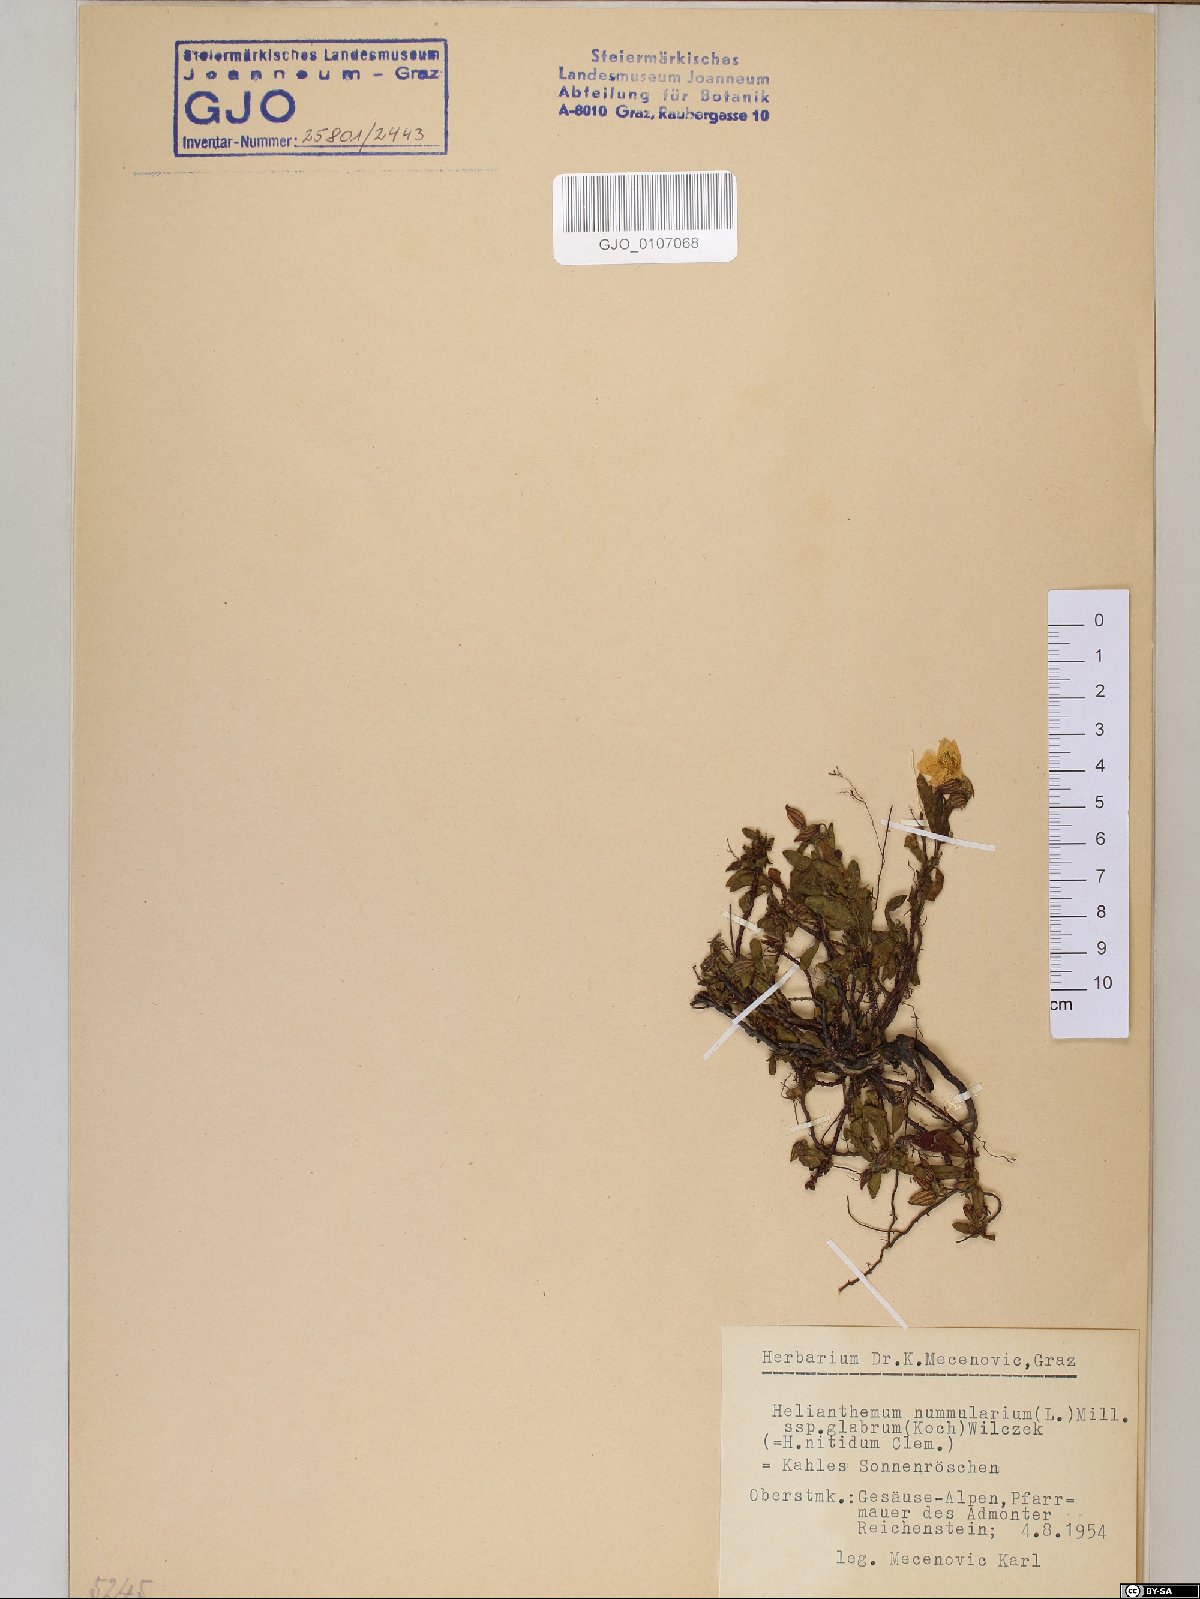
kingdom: Plantae
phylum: Tracheophyta
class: Magnoliopsida
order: Malvales
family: Cistaceae
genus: Helianthemum
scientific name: Helianthemum nummularium
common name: Common rock-rose
